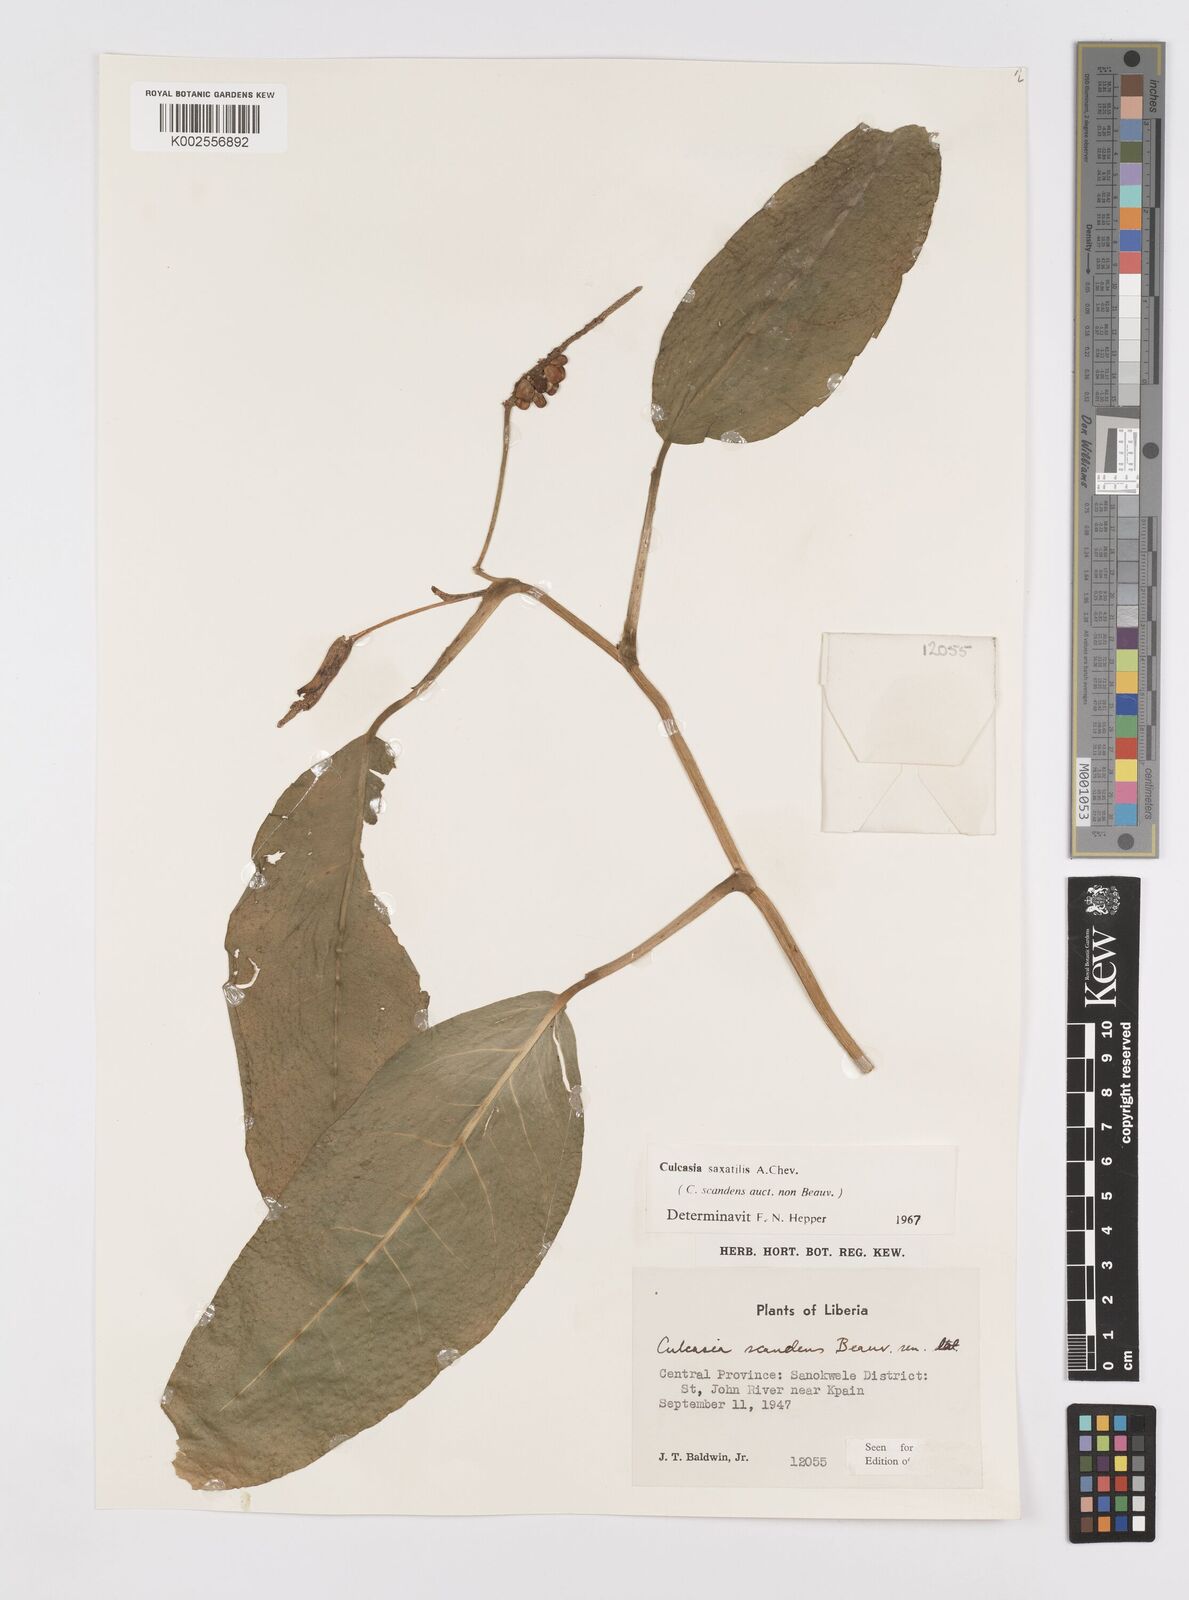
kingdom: Plantae
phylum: Tracheophyta
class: Liliopsida
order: Alismatales
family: Araceae
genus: Culcasia
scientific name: Culcasia scandens
